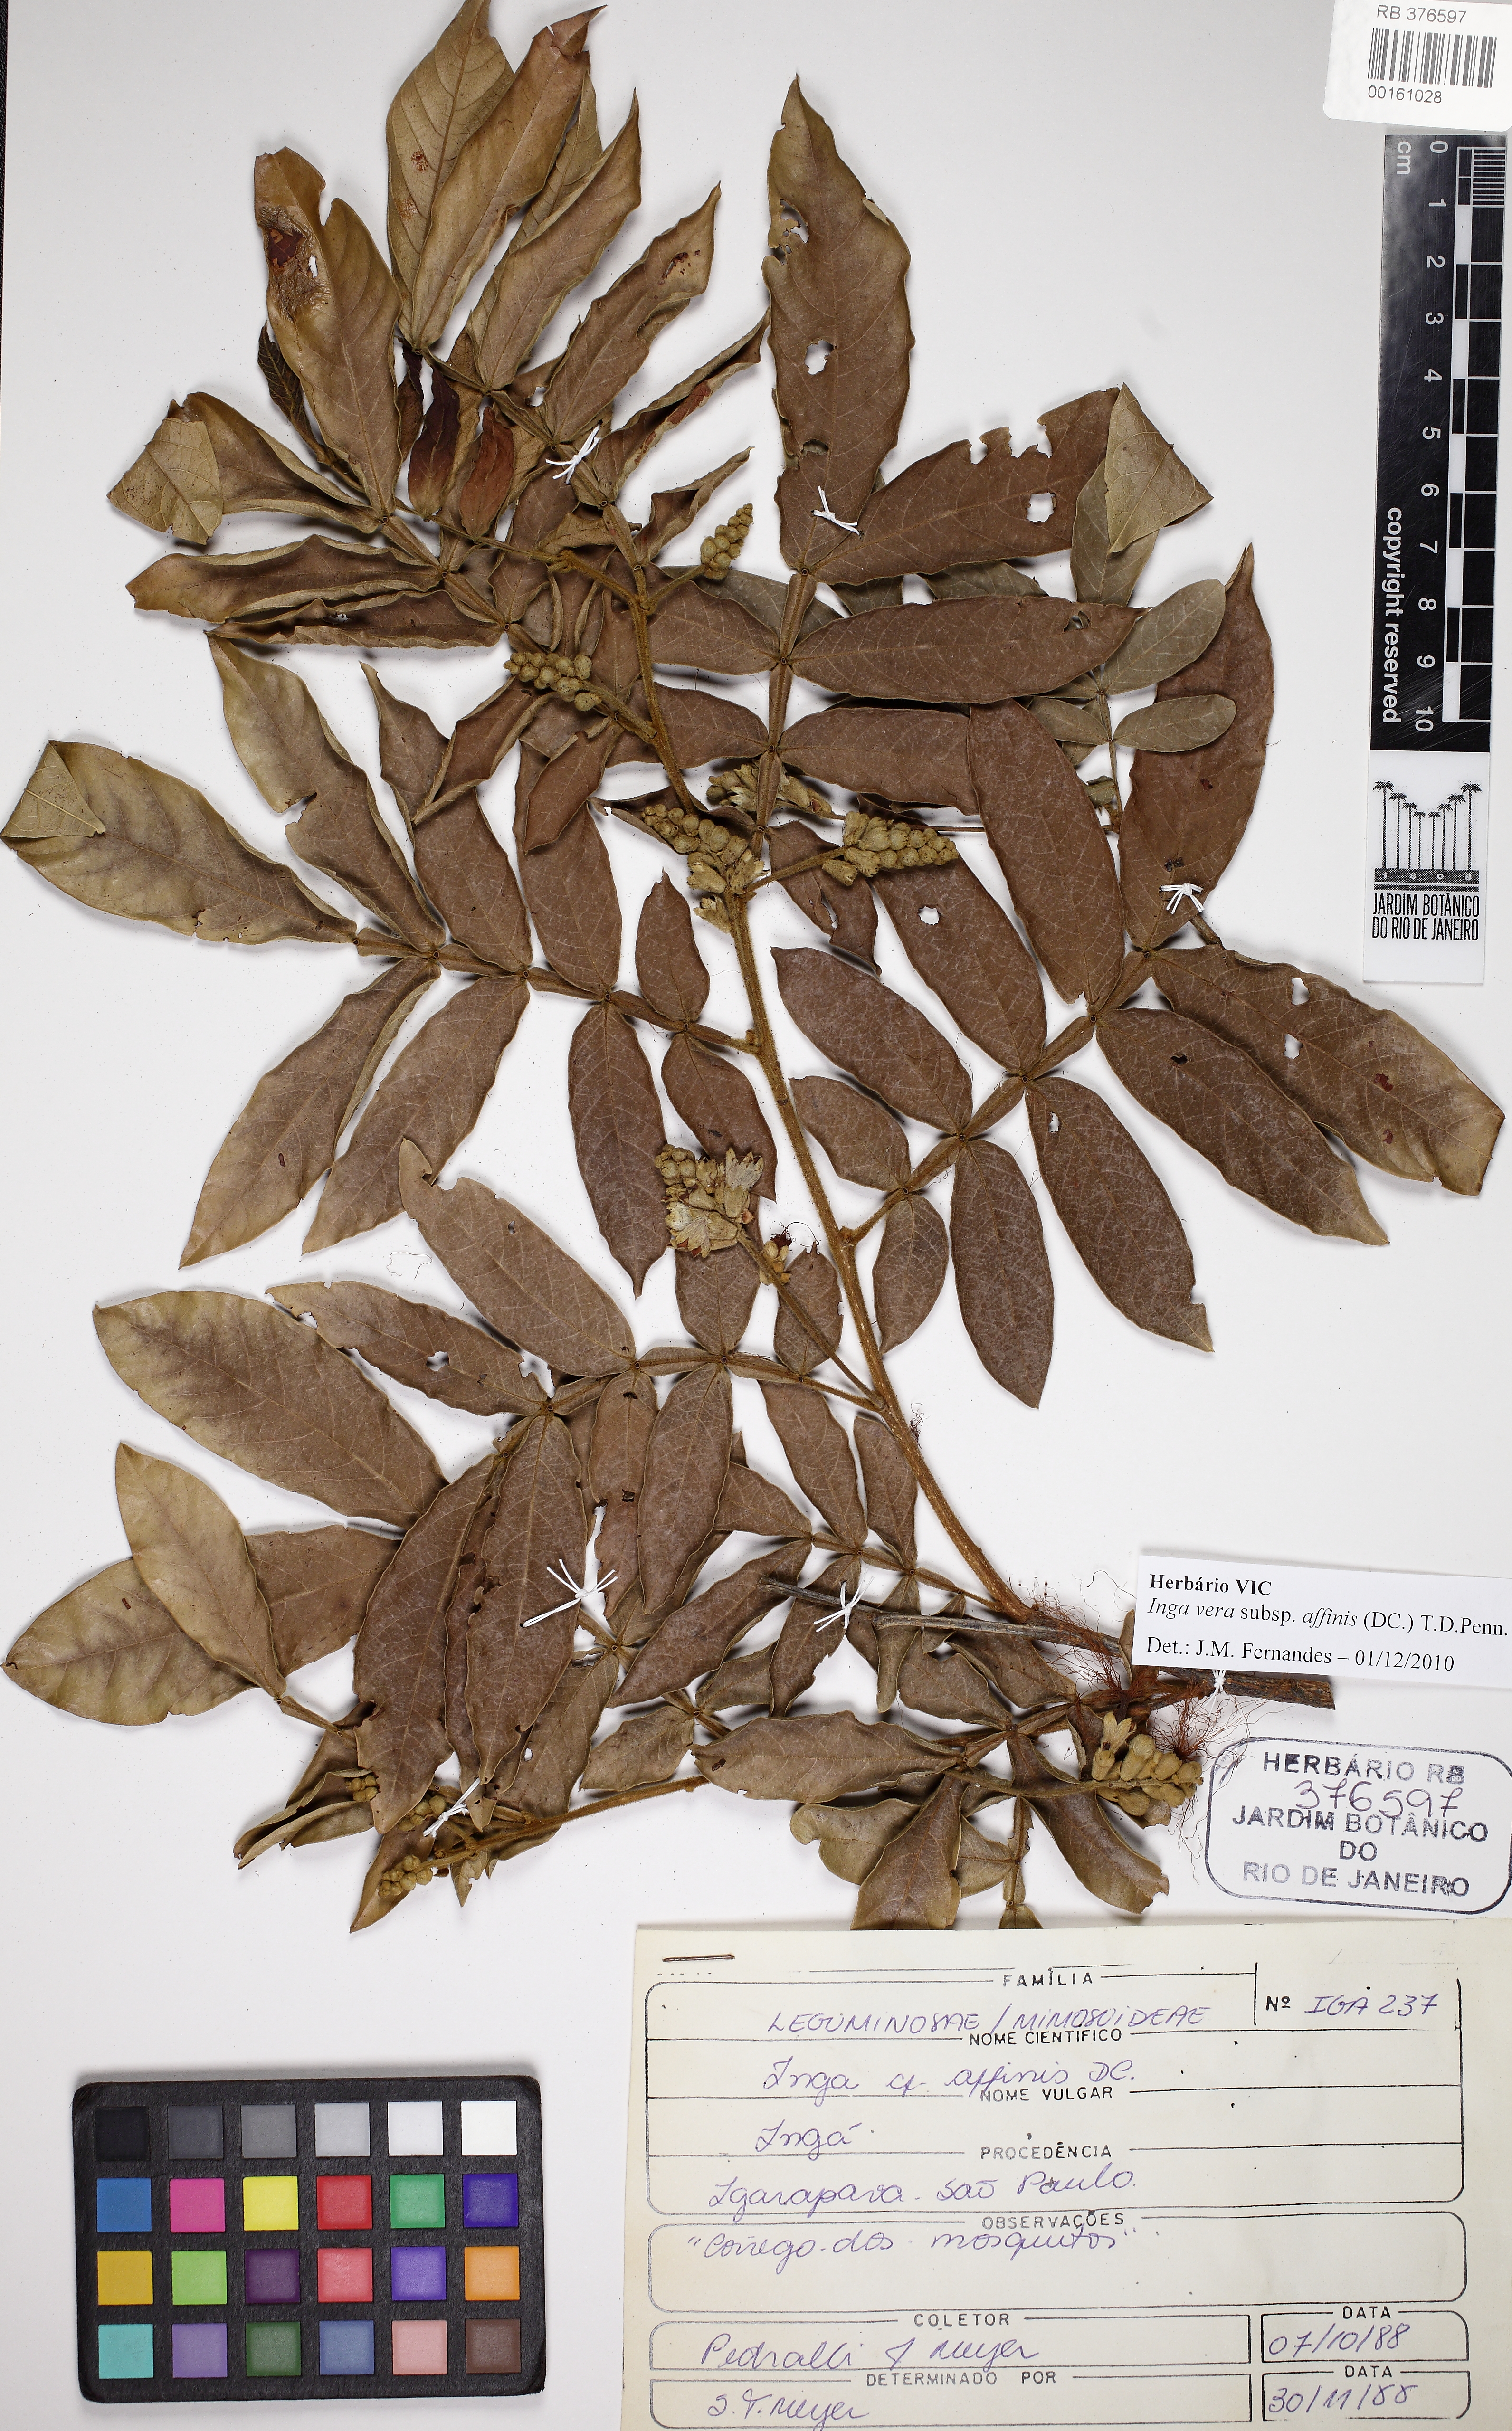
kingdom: Plantae
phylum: Tracheophyta
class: Magnoliopsida
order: Fabales
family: Fabaceae
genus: Inga
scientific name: Inga affinis
